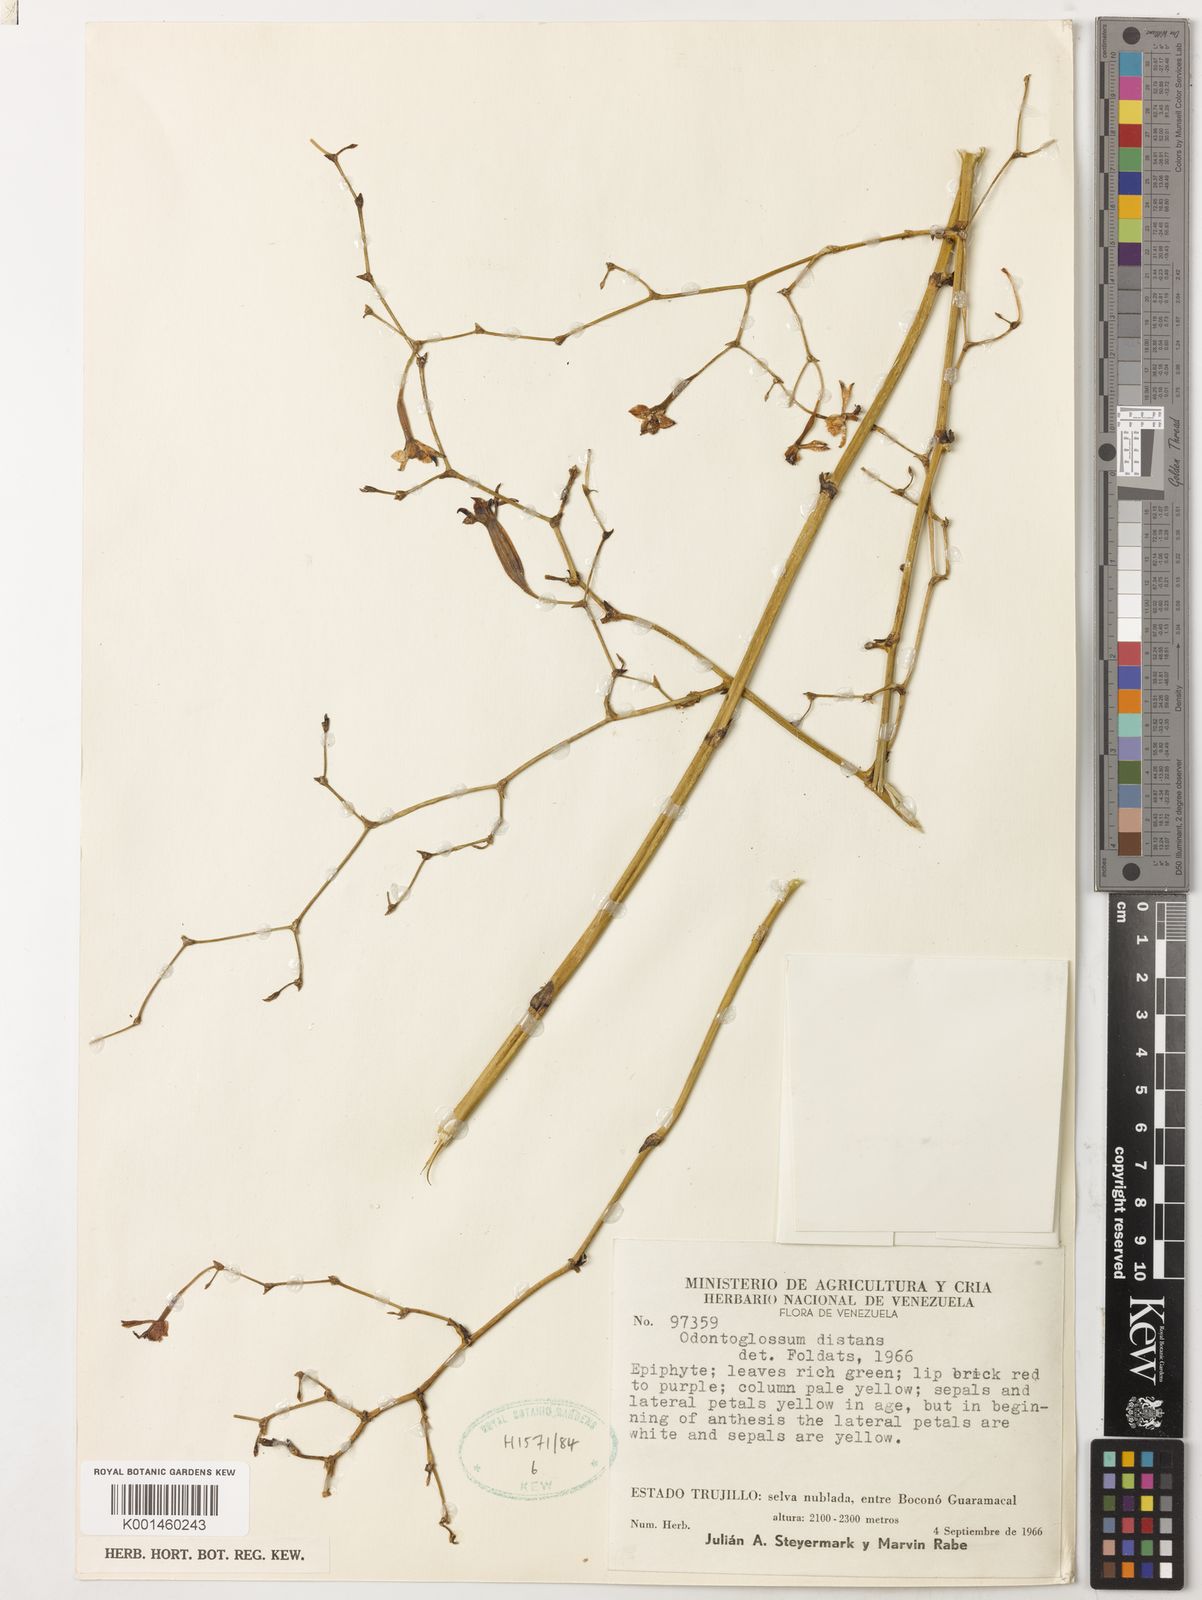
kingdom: Plantae
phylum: Tracheophyta
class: Liliopsida
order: Asparagales
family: Orchidaceae
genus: Cyrtochilum
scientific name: Cyrtochilum distans
